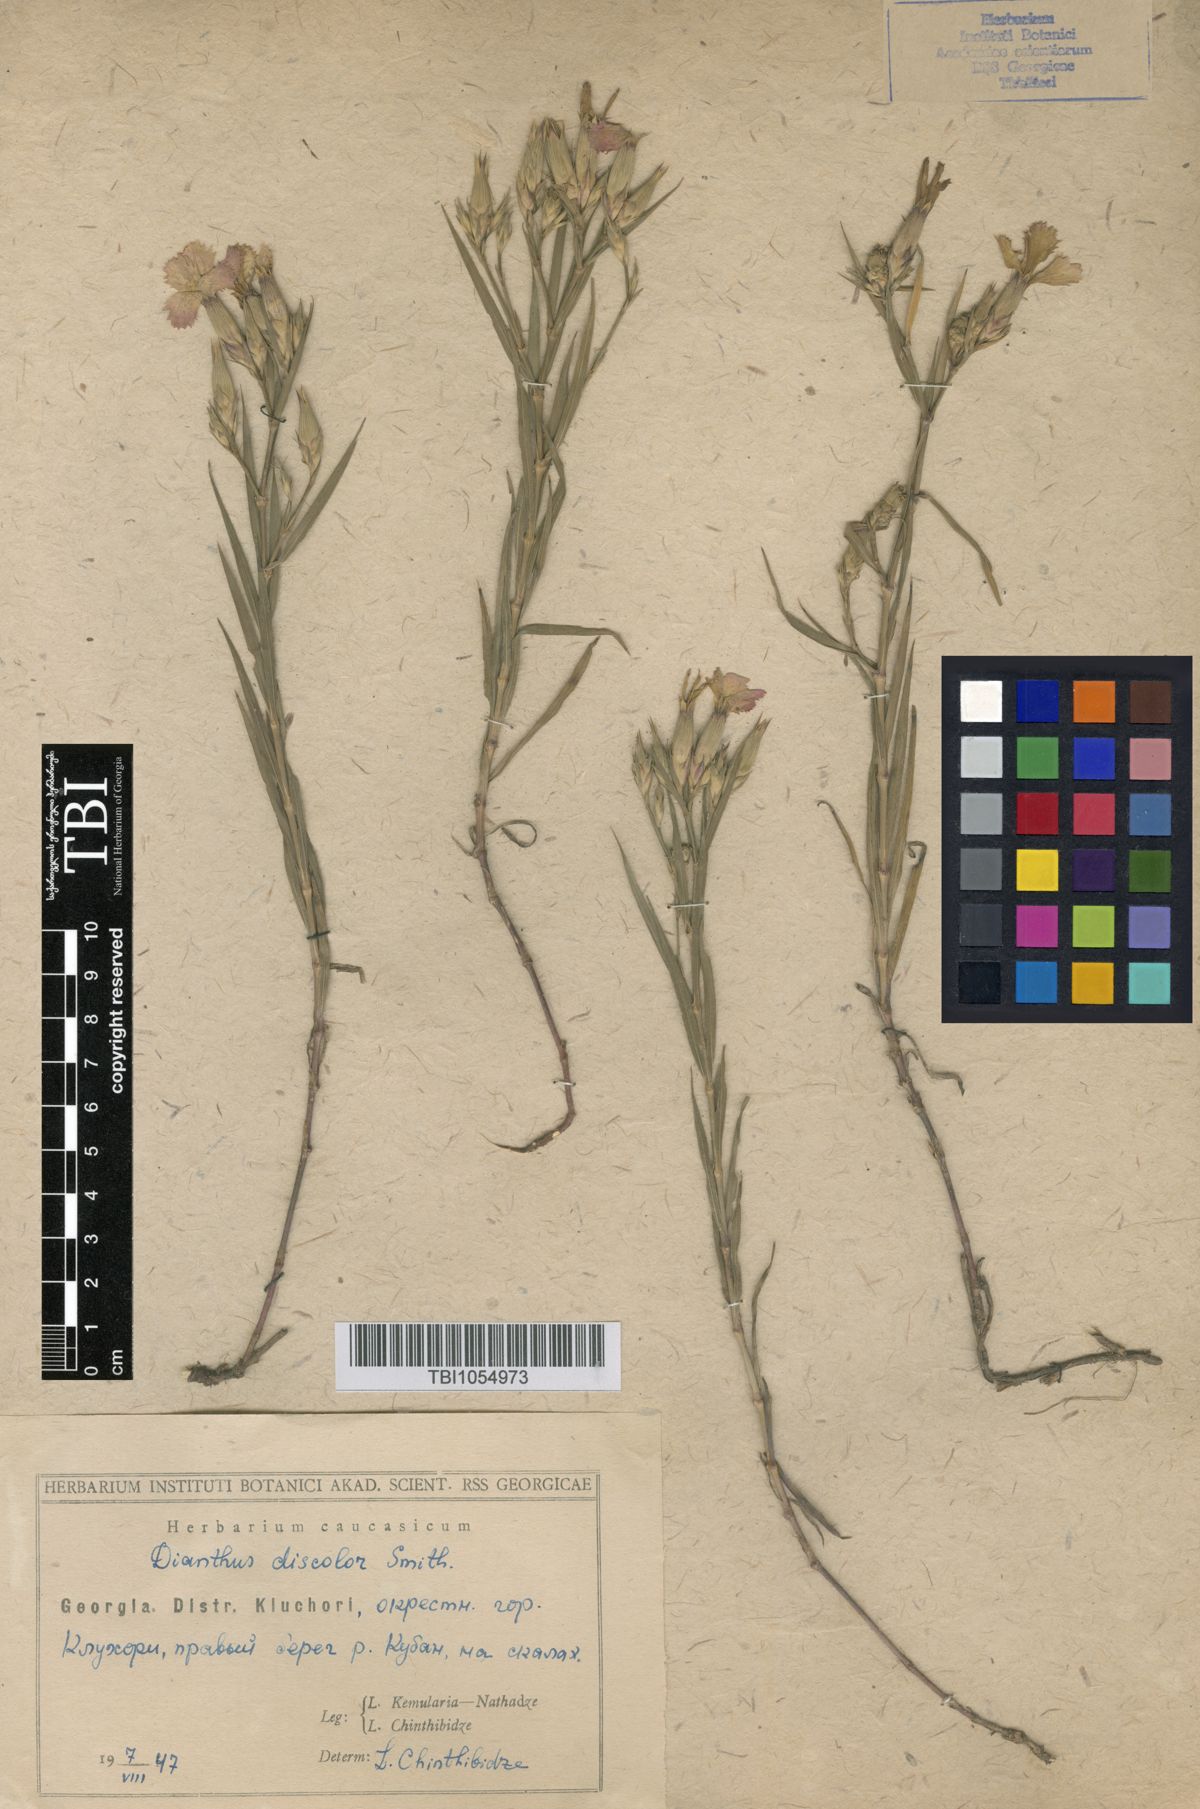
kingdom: Plantae
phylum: Tracheophyta
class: Magnoliopsida
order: Caryophyllales
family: Caryophyllaceae
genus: Dianthus
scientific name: Dianthus caucaseus
